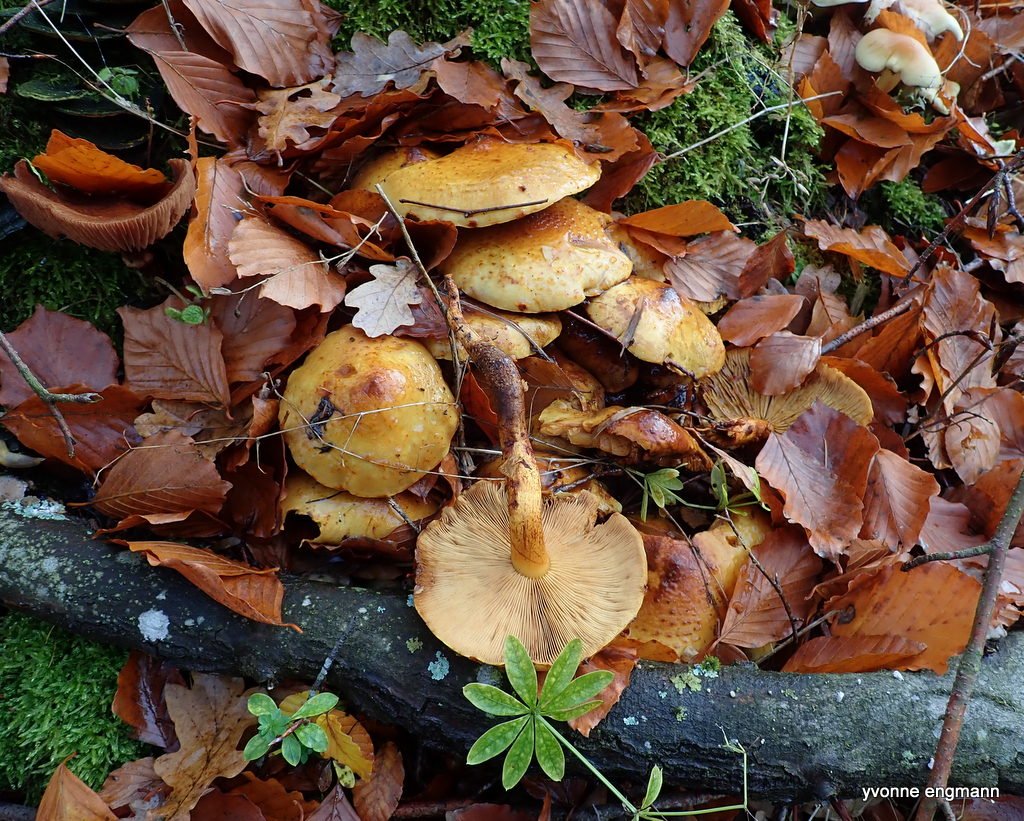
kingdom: Fungi
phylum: Basidiomycota
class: Agaricomycetes
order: Agaricales
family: Strophariaceae
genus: Pholiota
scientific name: Pholiota jahnii
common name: slimet skælhat
